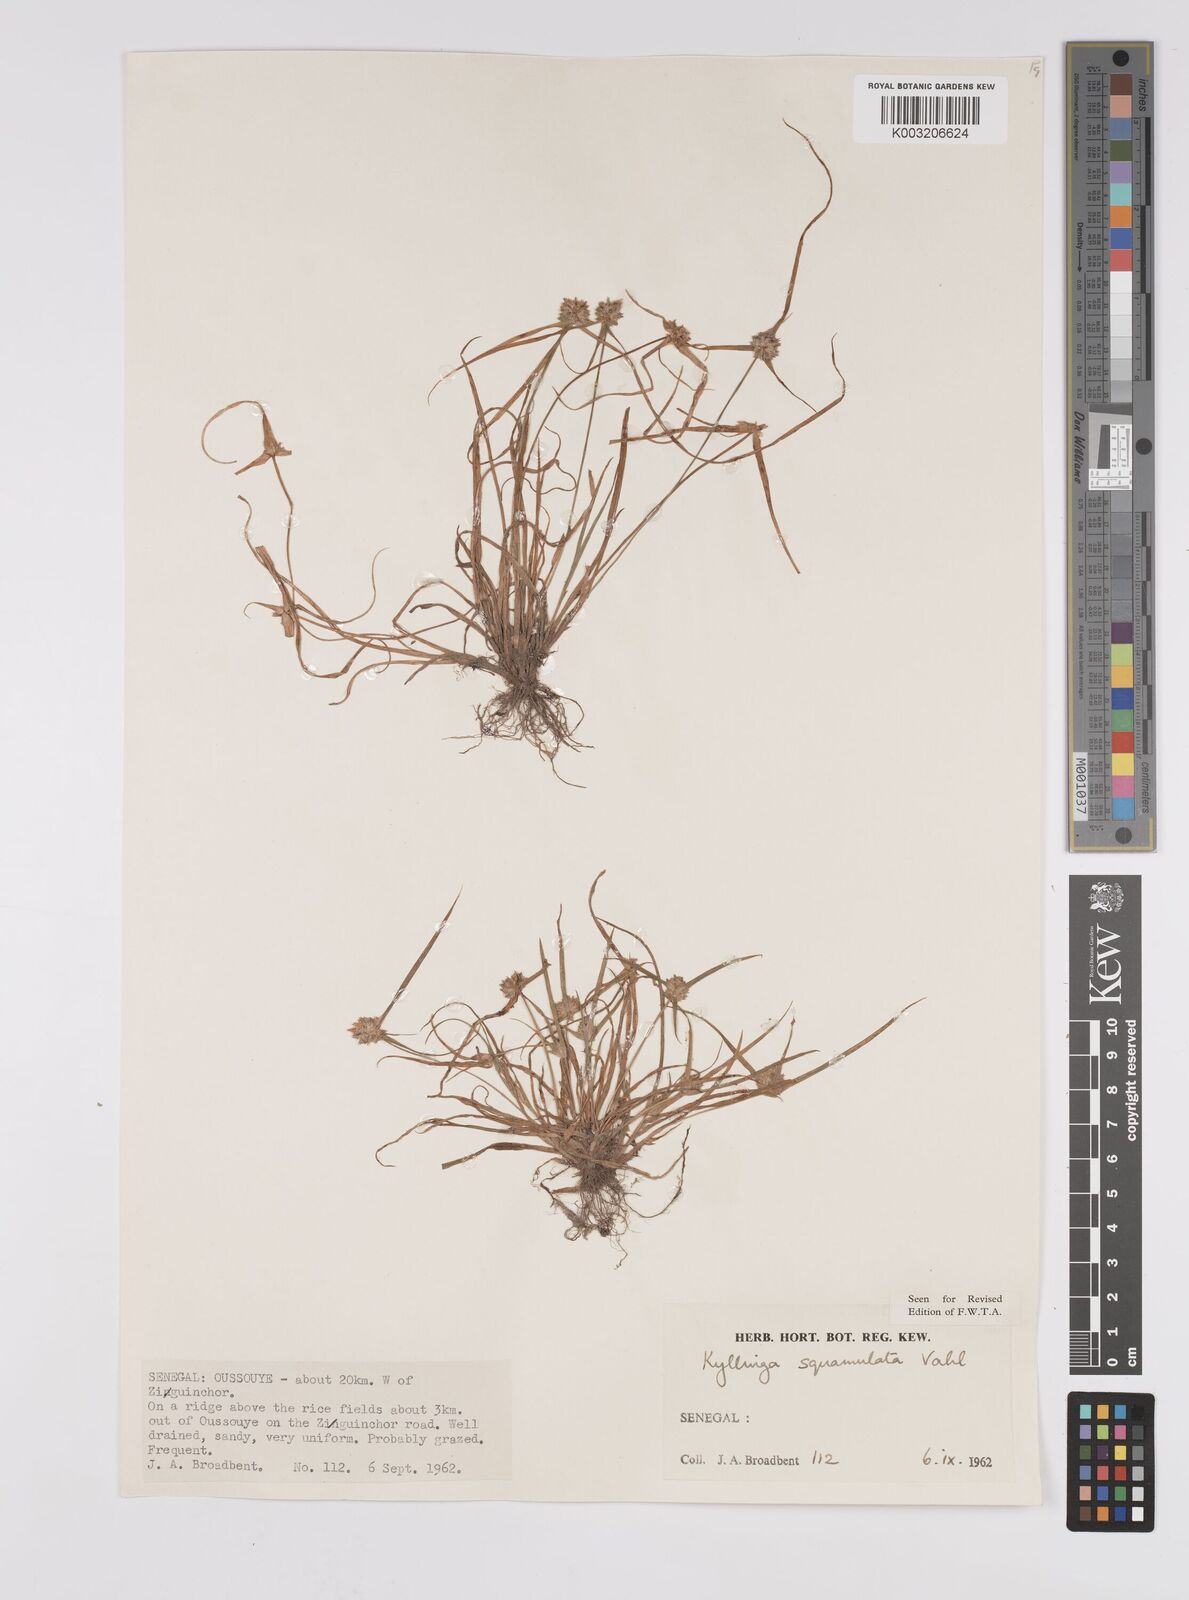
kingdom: Plantae
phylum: Tracheophyta
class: Liliopsida
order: Poales
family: Cyperaceae
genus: Cyperus
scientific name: Cyperus distans
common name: Slender cyperus
